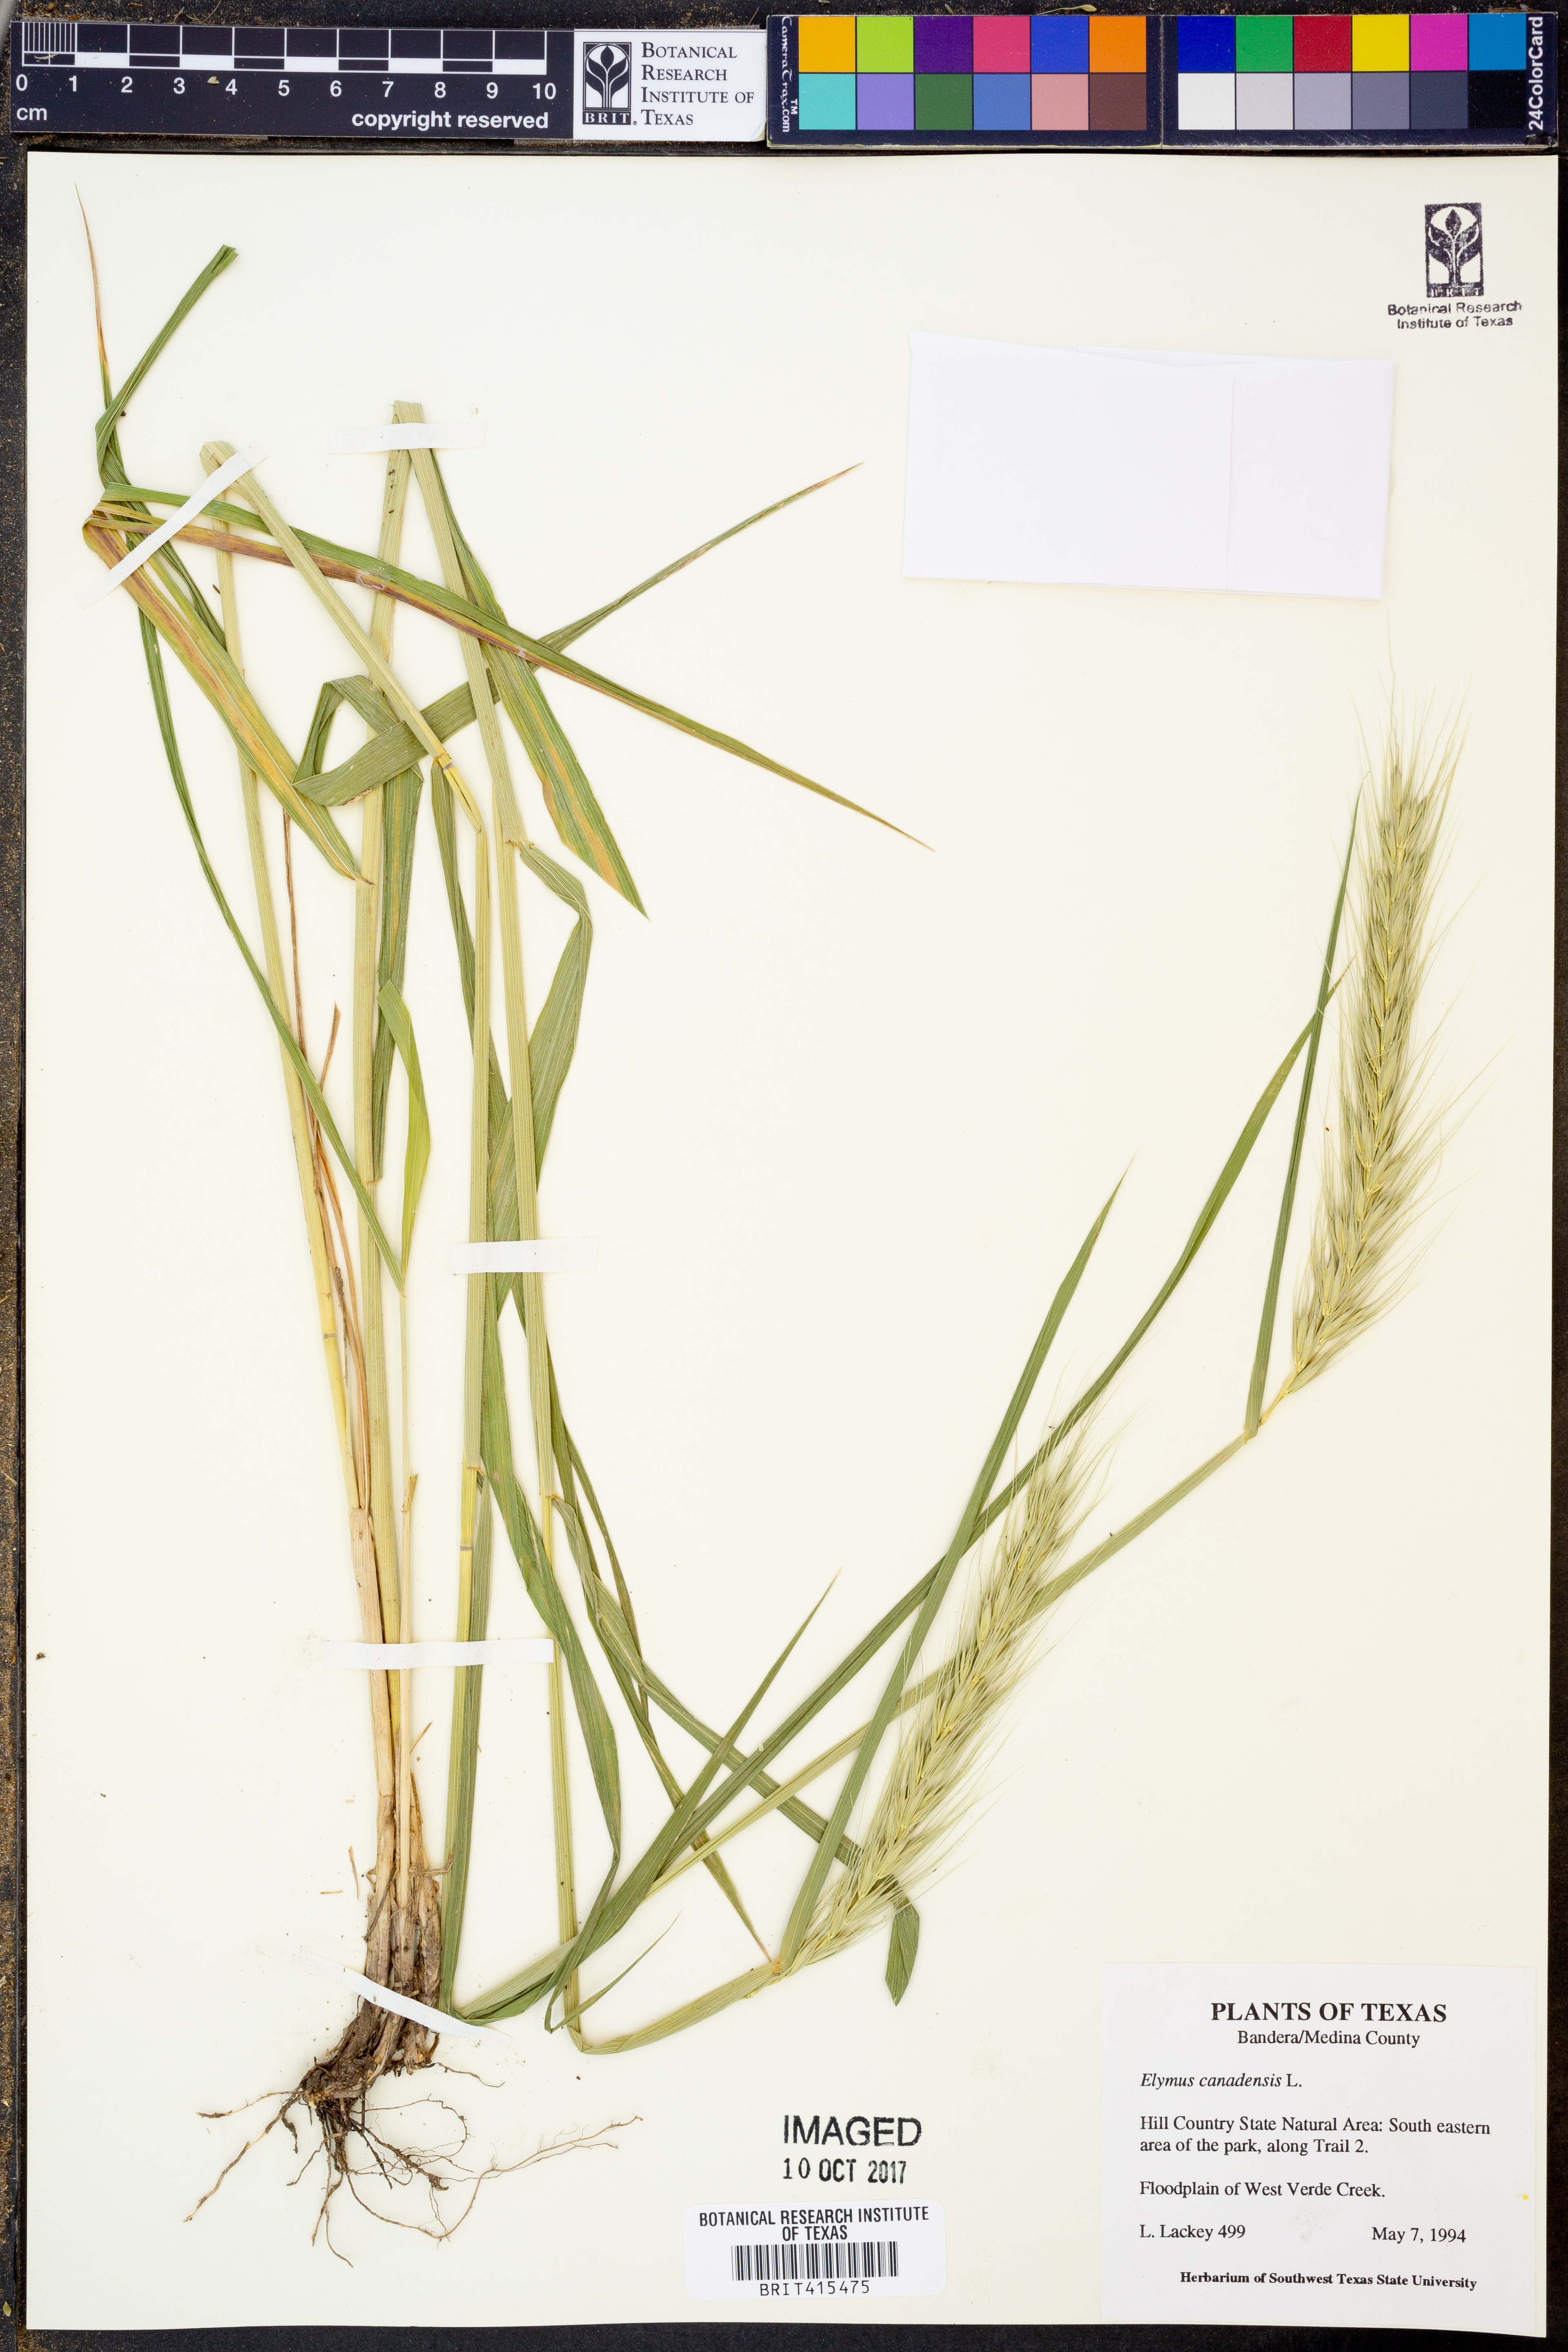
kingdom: Plantae
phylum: Tracheophyta
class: Liliopsida
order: Poales
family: Poaceae
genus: Elymus
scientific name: Elymus canadensis
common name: Canada wild rye
